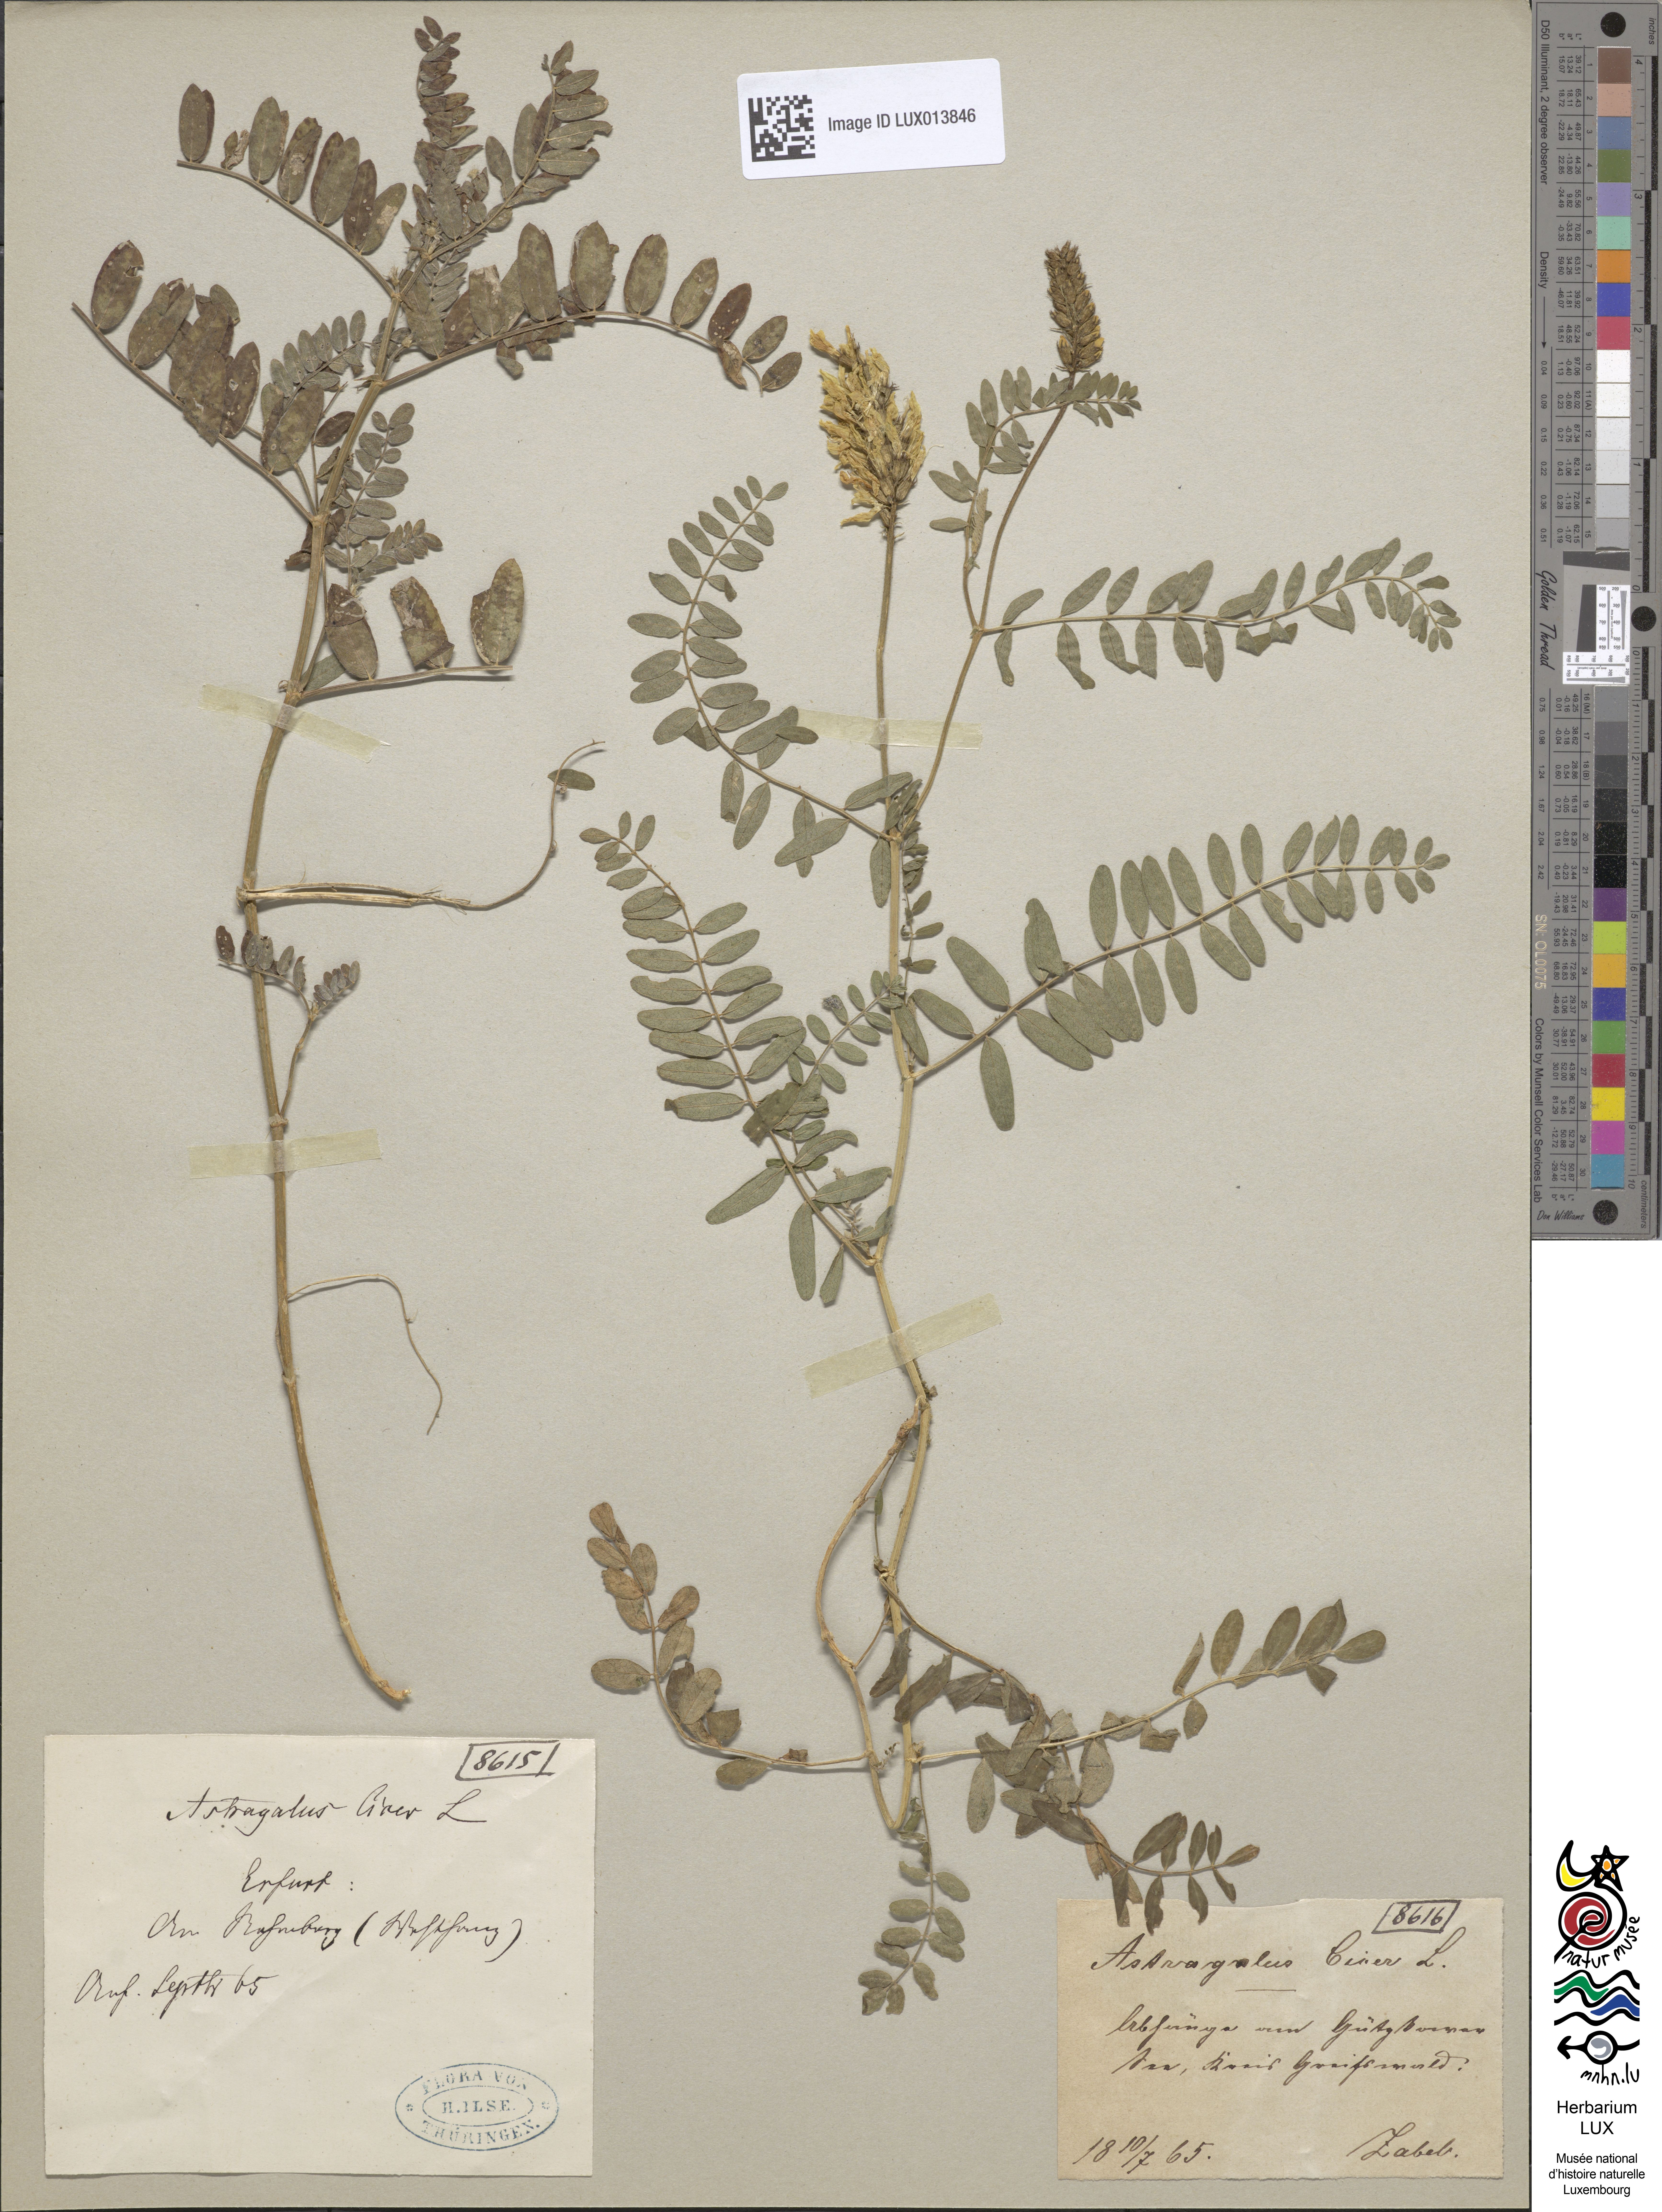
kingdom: Plantae
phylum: Tracheophyta
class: Magnoliopsida
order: Fabales
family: Fabaceae
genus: Astragalus
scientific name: Astragalus cicer
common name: Chick-pea milk-vetch
